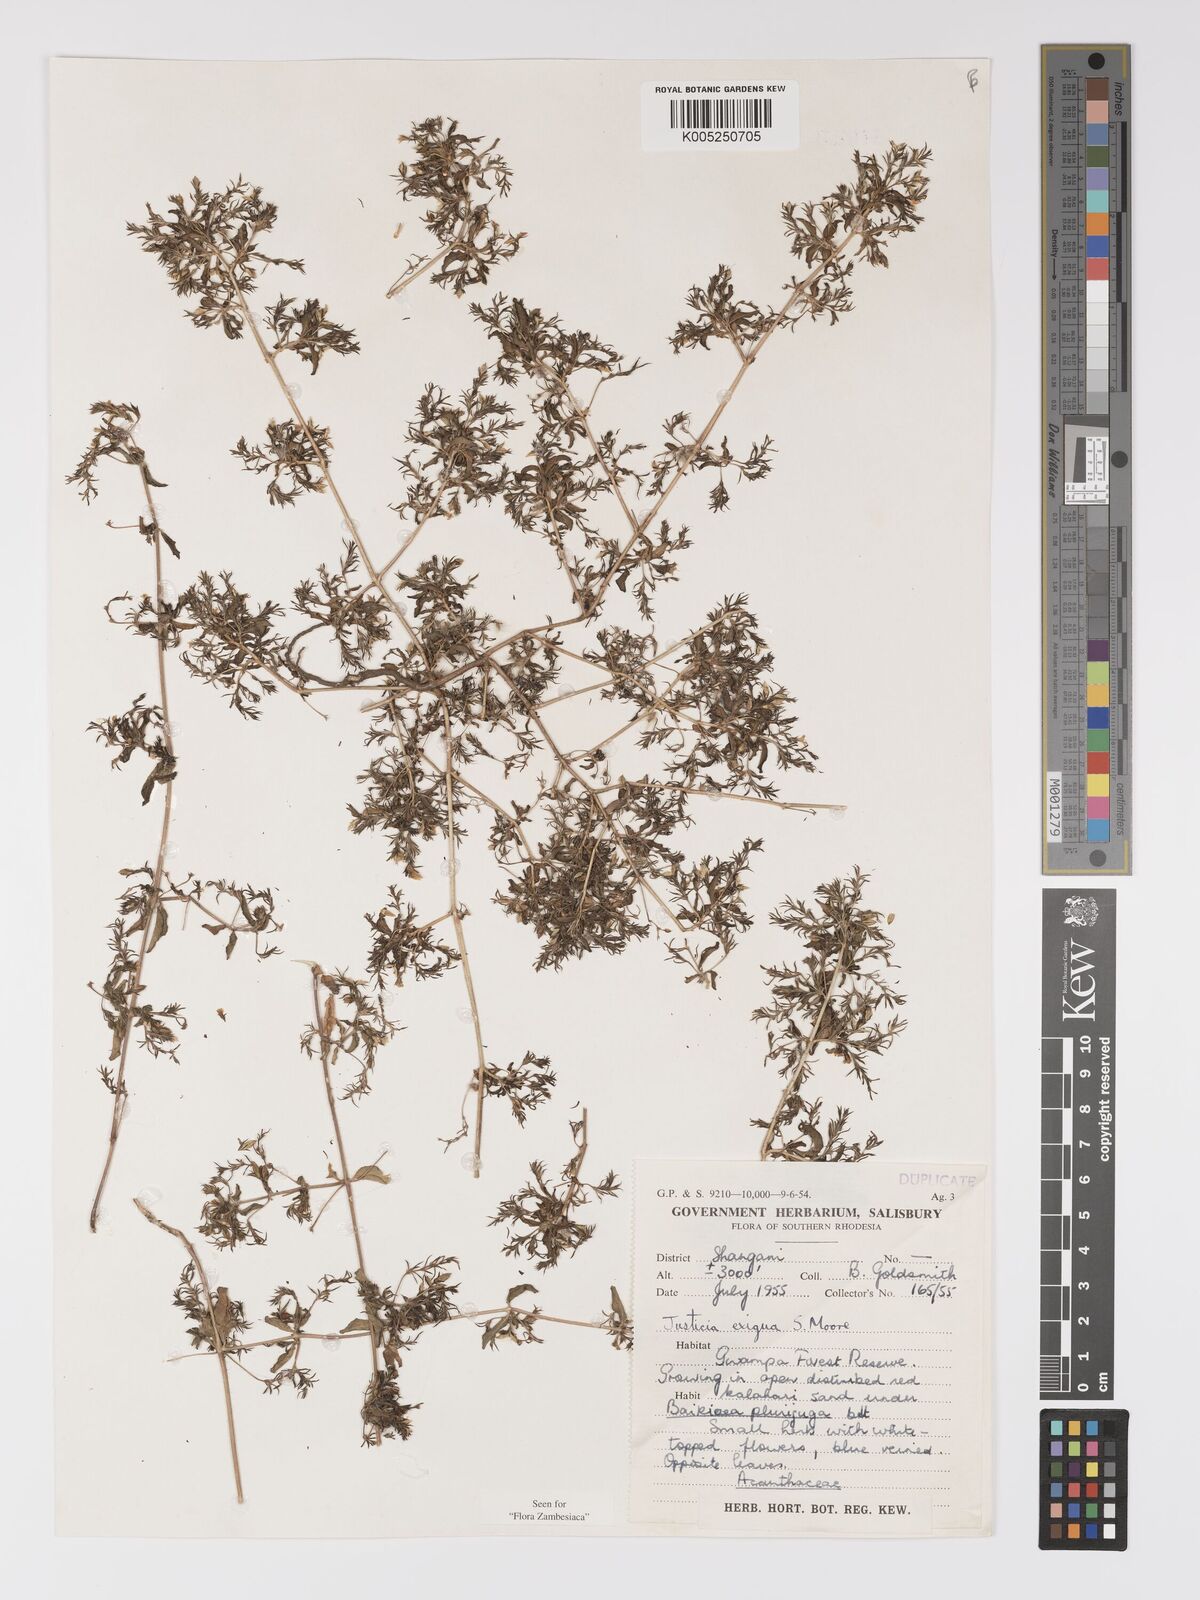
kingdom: Plantae
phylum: Tracheophyta
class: Magnoliopsida
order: Lamiales
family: Acanthaceae
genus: Justicia
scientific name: Justicia exigua
